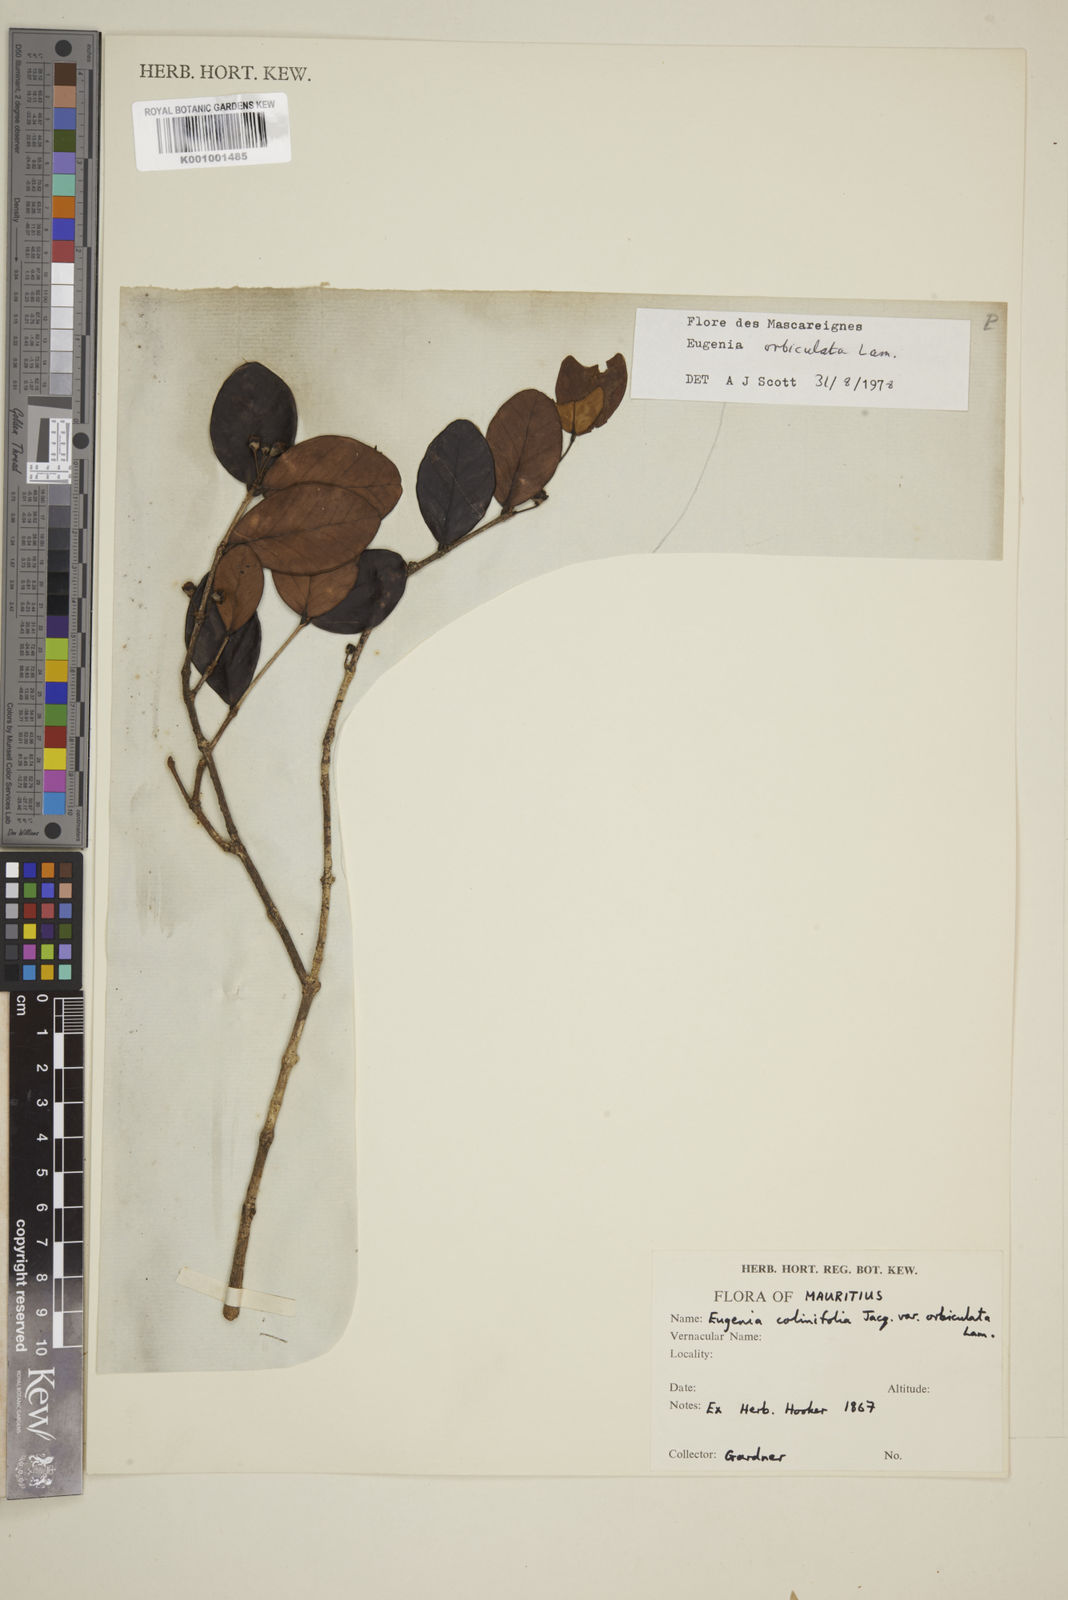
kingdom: Plantae
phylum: Tracheophyta
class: Magnoliopsida
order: Myrtales
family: Myrtaceae
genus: Eugenia
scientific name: Eugenia orbiculata
